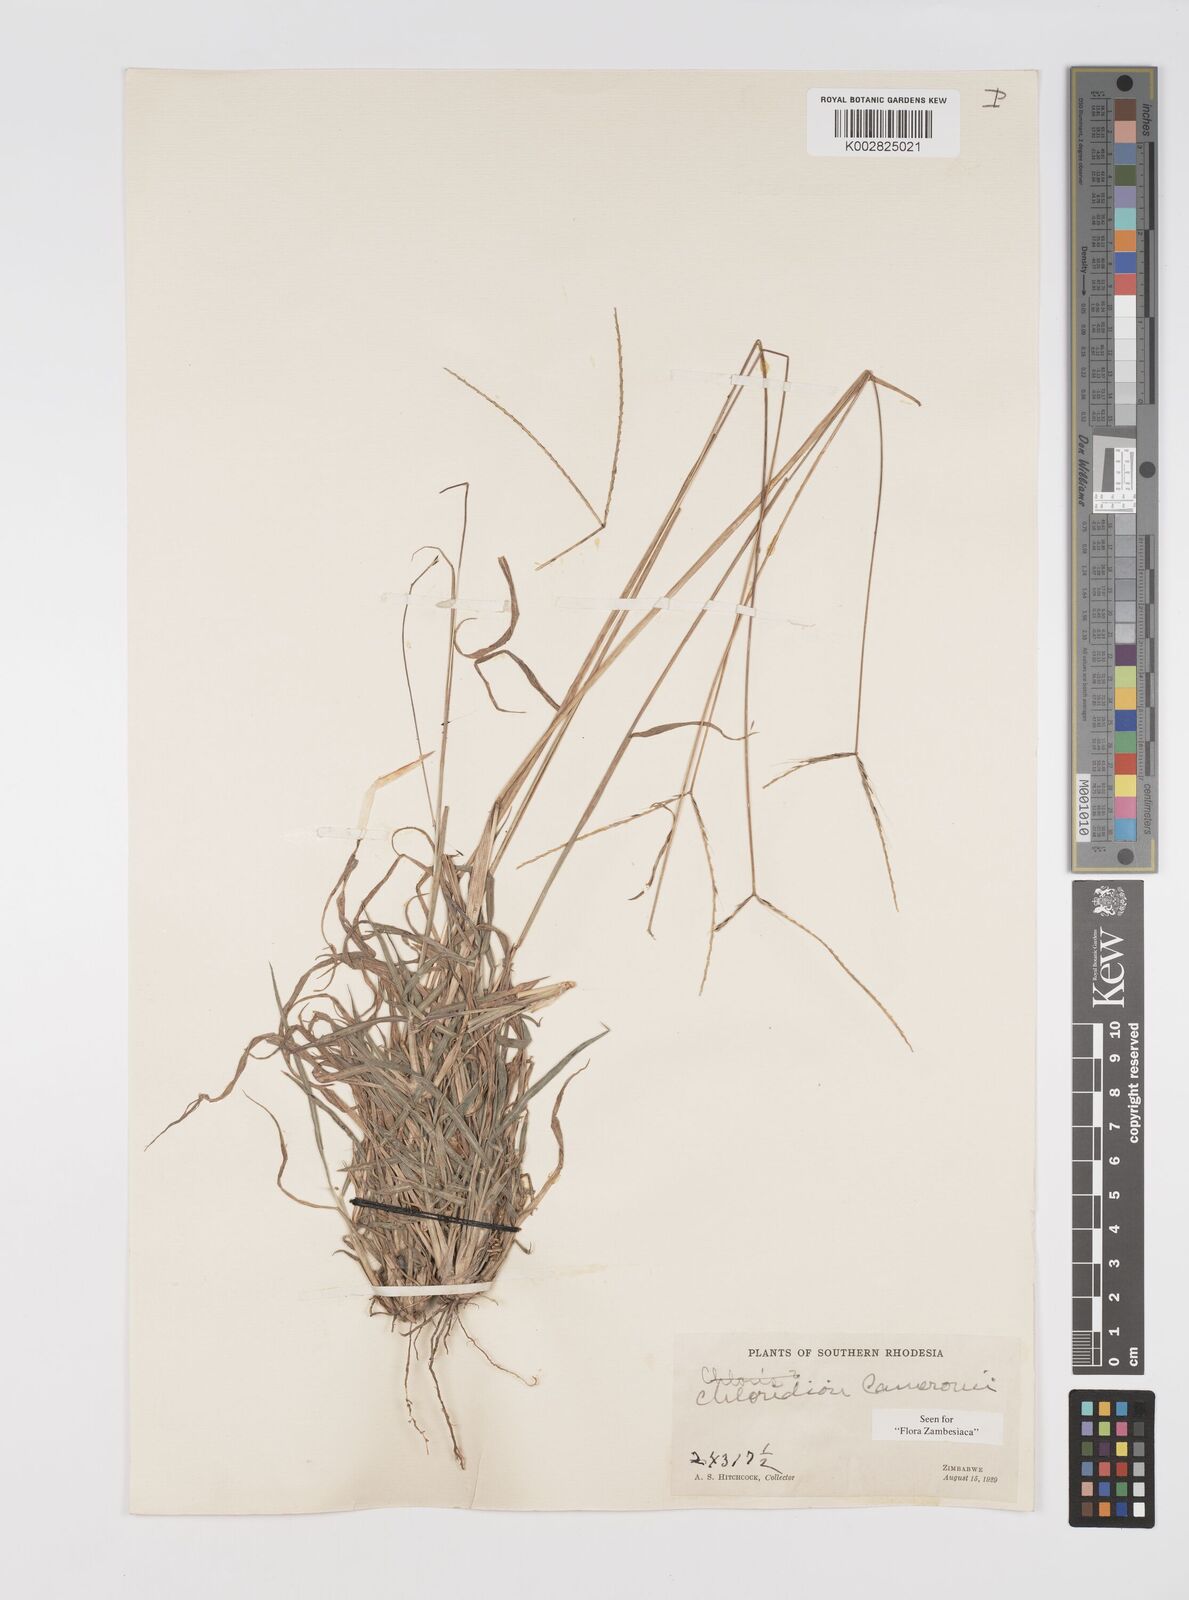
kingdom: Plantae
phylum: Tracheophyta
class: Liliopsida
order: Poales
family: Poaceae
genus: Stereochlaena
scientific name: Stereochlaena cameronii
